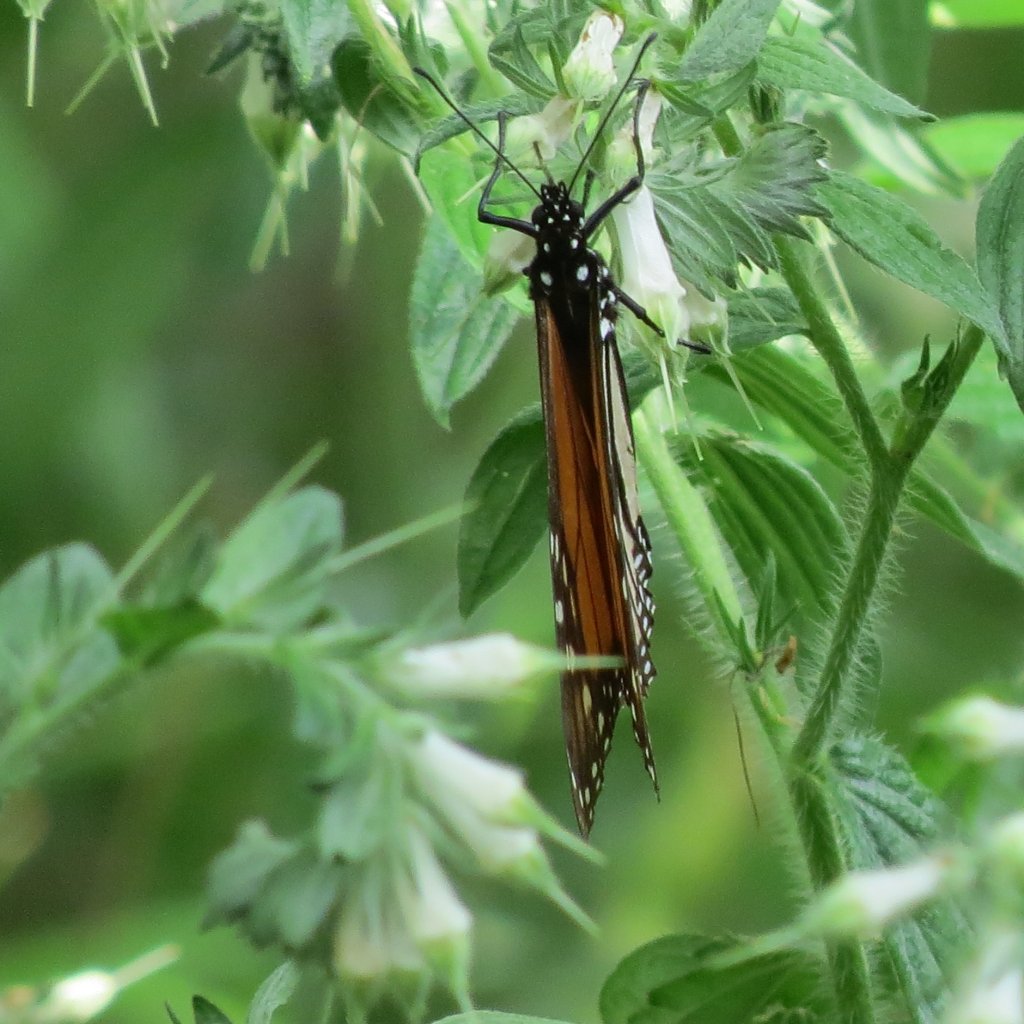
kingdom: Animalia
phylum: Arthropoda
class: Insecta
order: Lepidoptera
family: Nymphalidae
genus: Danaus
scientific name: Danaus plexippus
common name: Monarch
